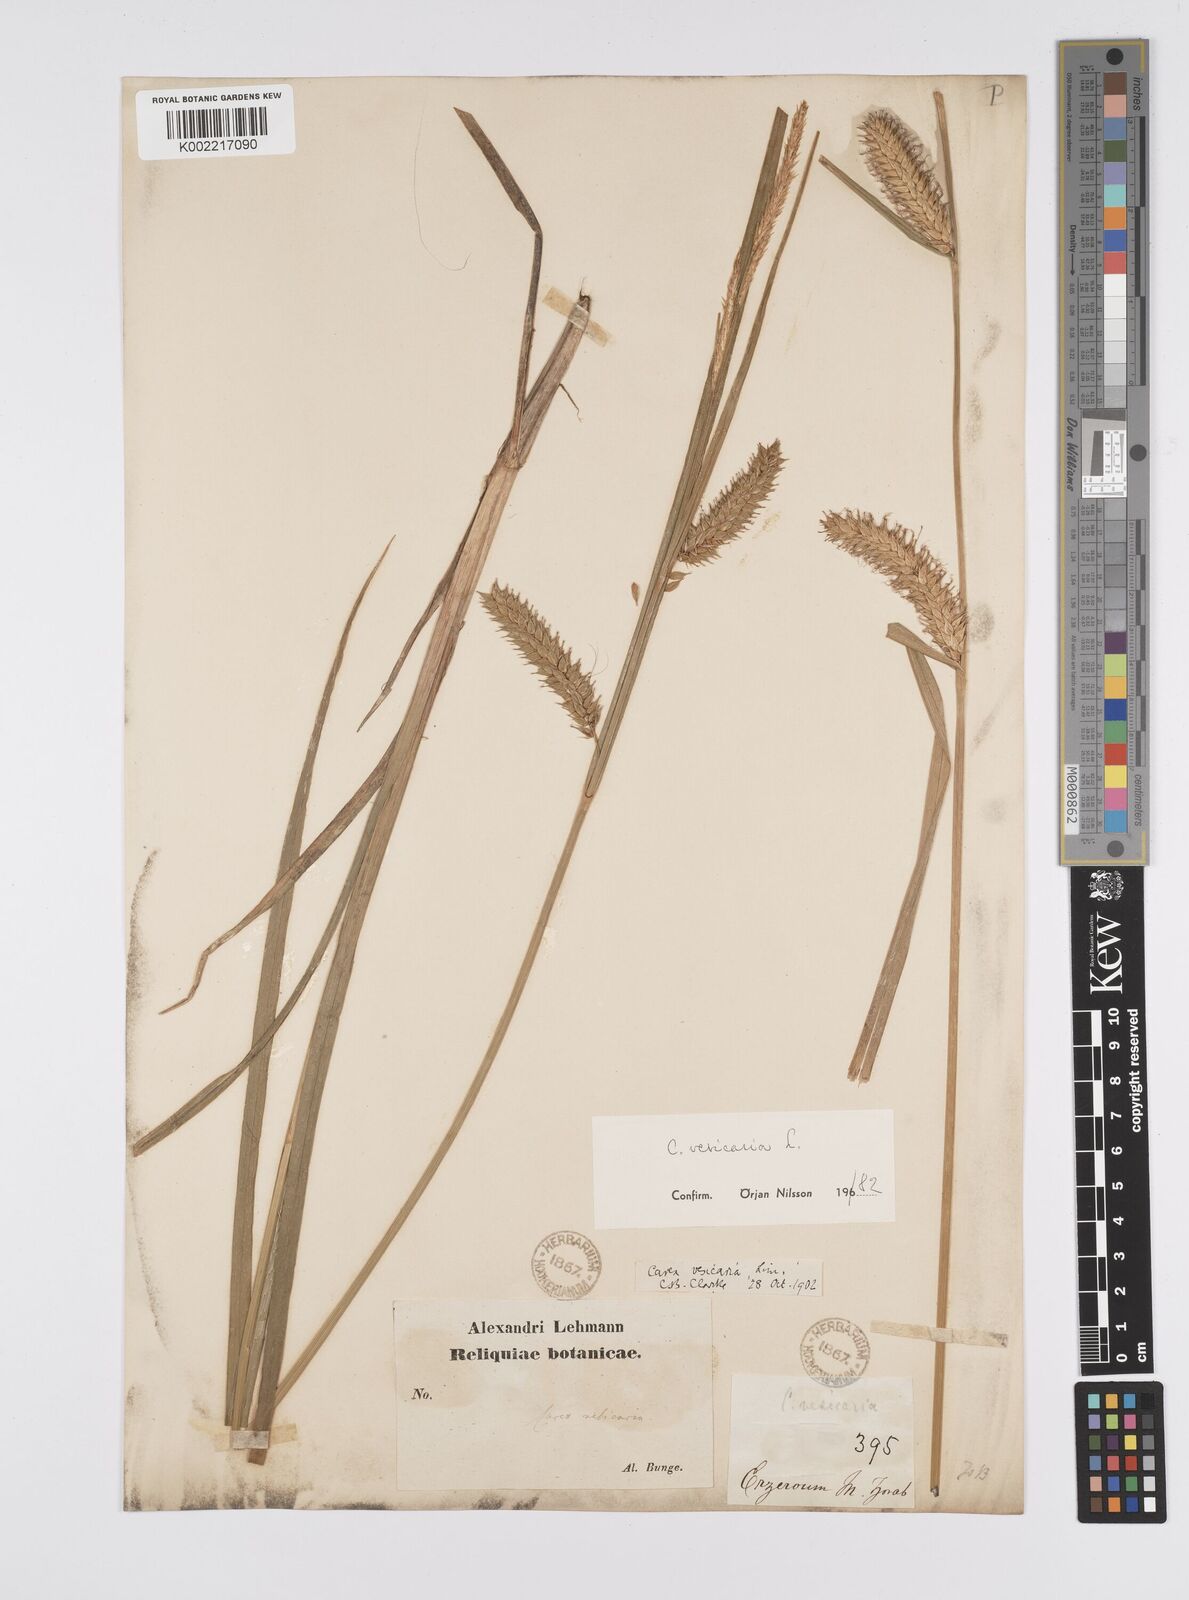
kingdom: Plantae
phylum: Tracheophyta
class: Liliopsida
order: Poales
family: Cyperaceae
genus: Carex
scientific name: Carex vesicaria
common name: Bladder-sedge
